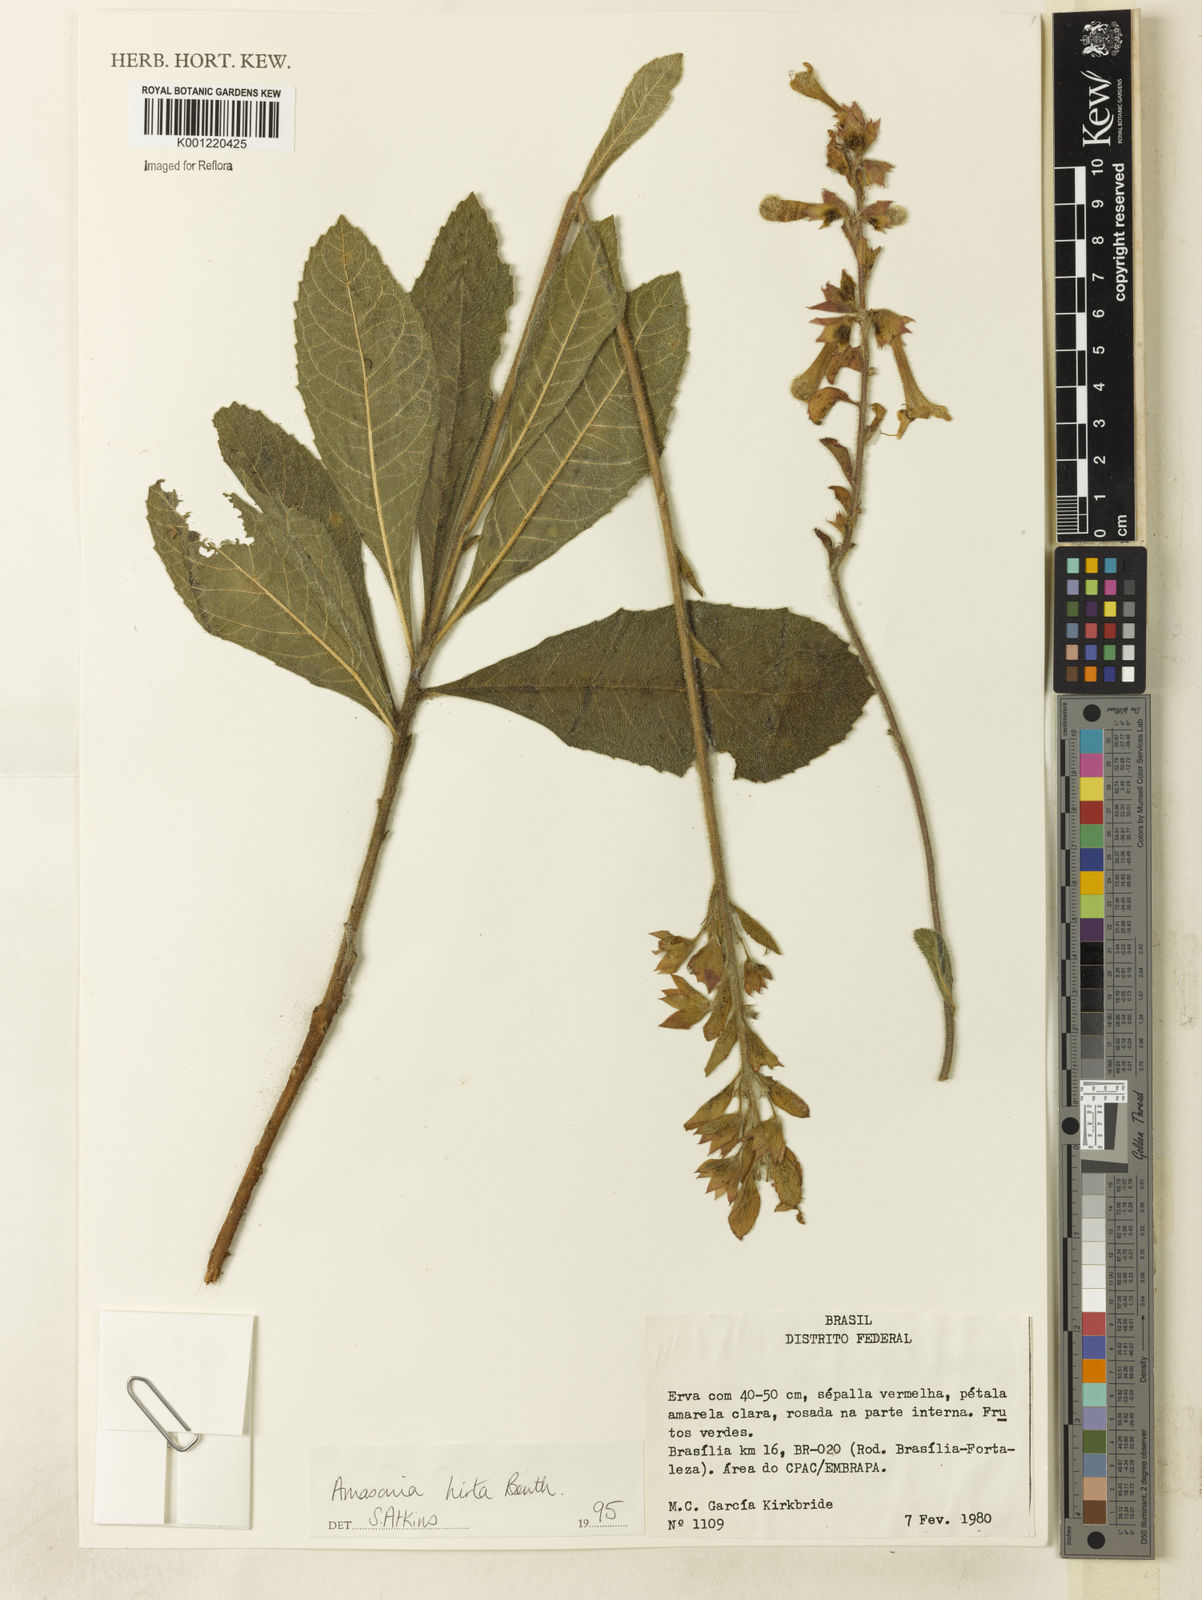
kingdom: Plantae
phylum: Tracheophyta
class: Magnoliopsida
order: Lamiales
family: Lamiaceae
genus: Amasonia
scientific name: Amasonia hirta
